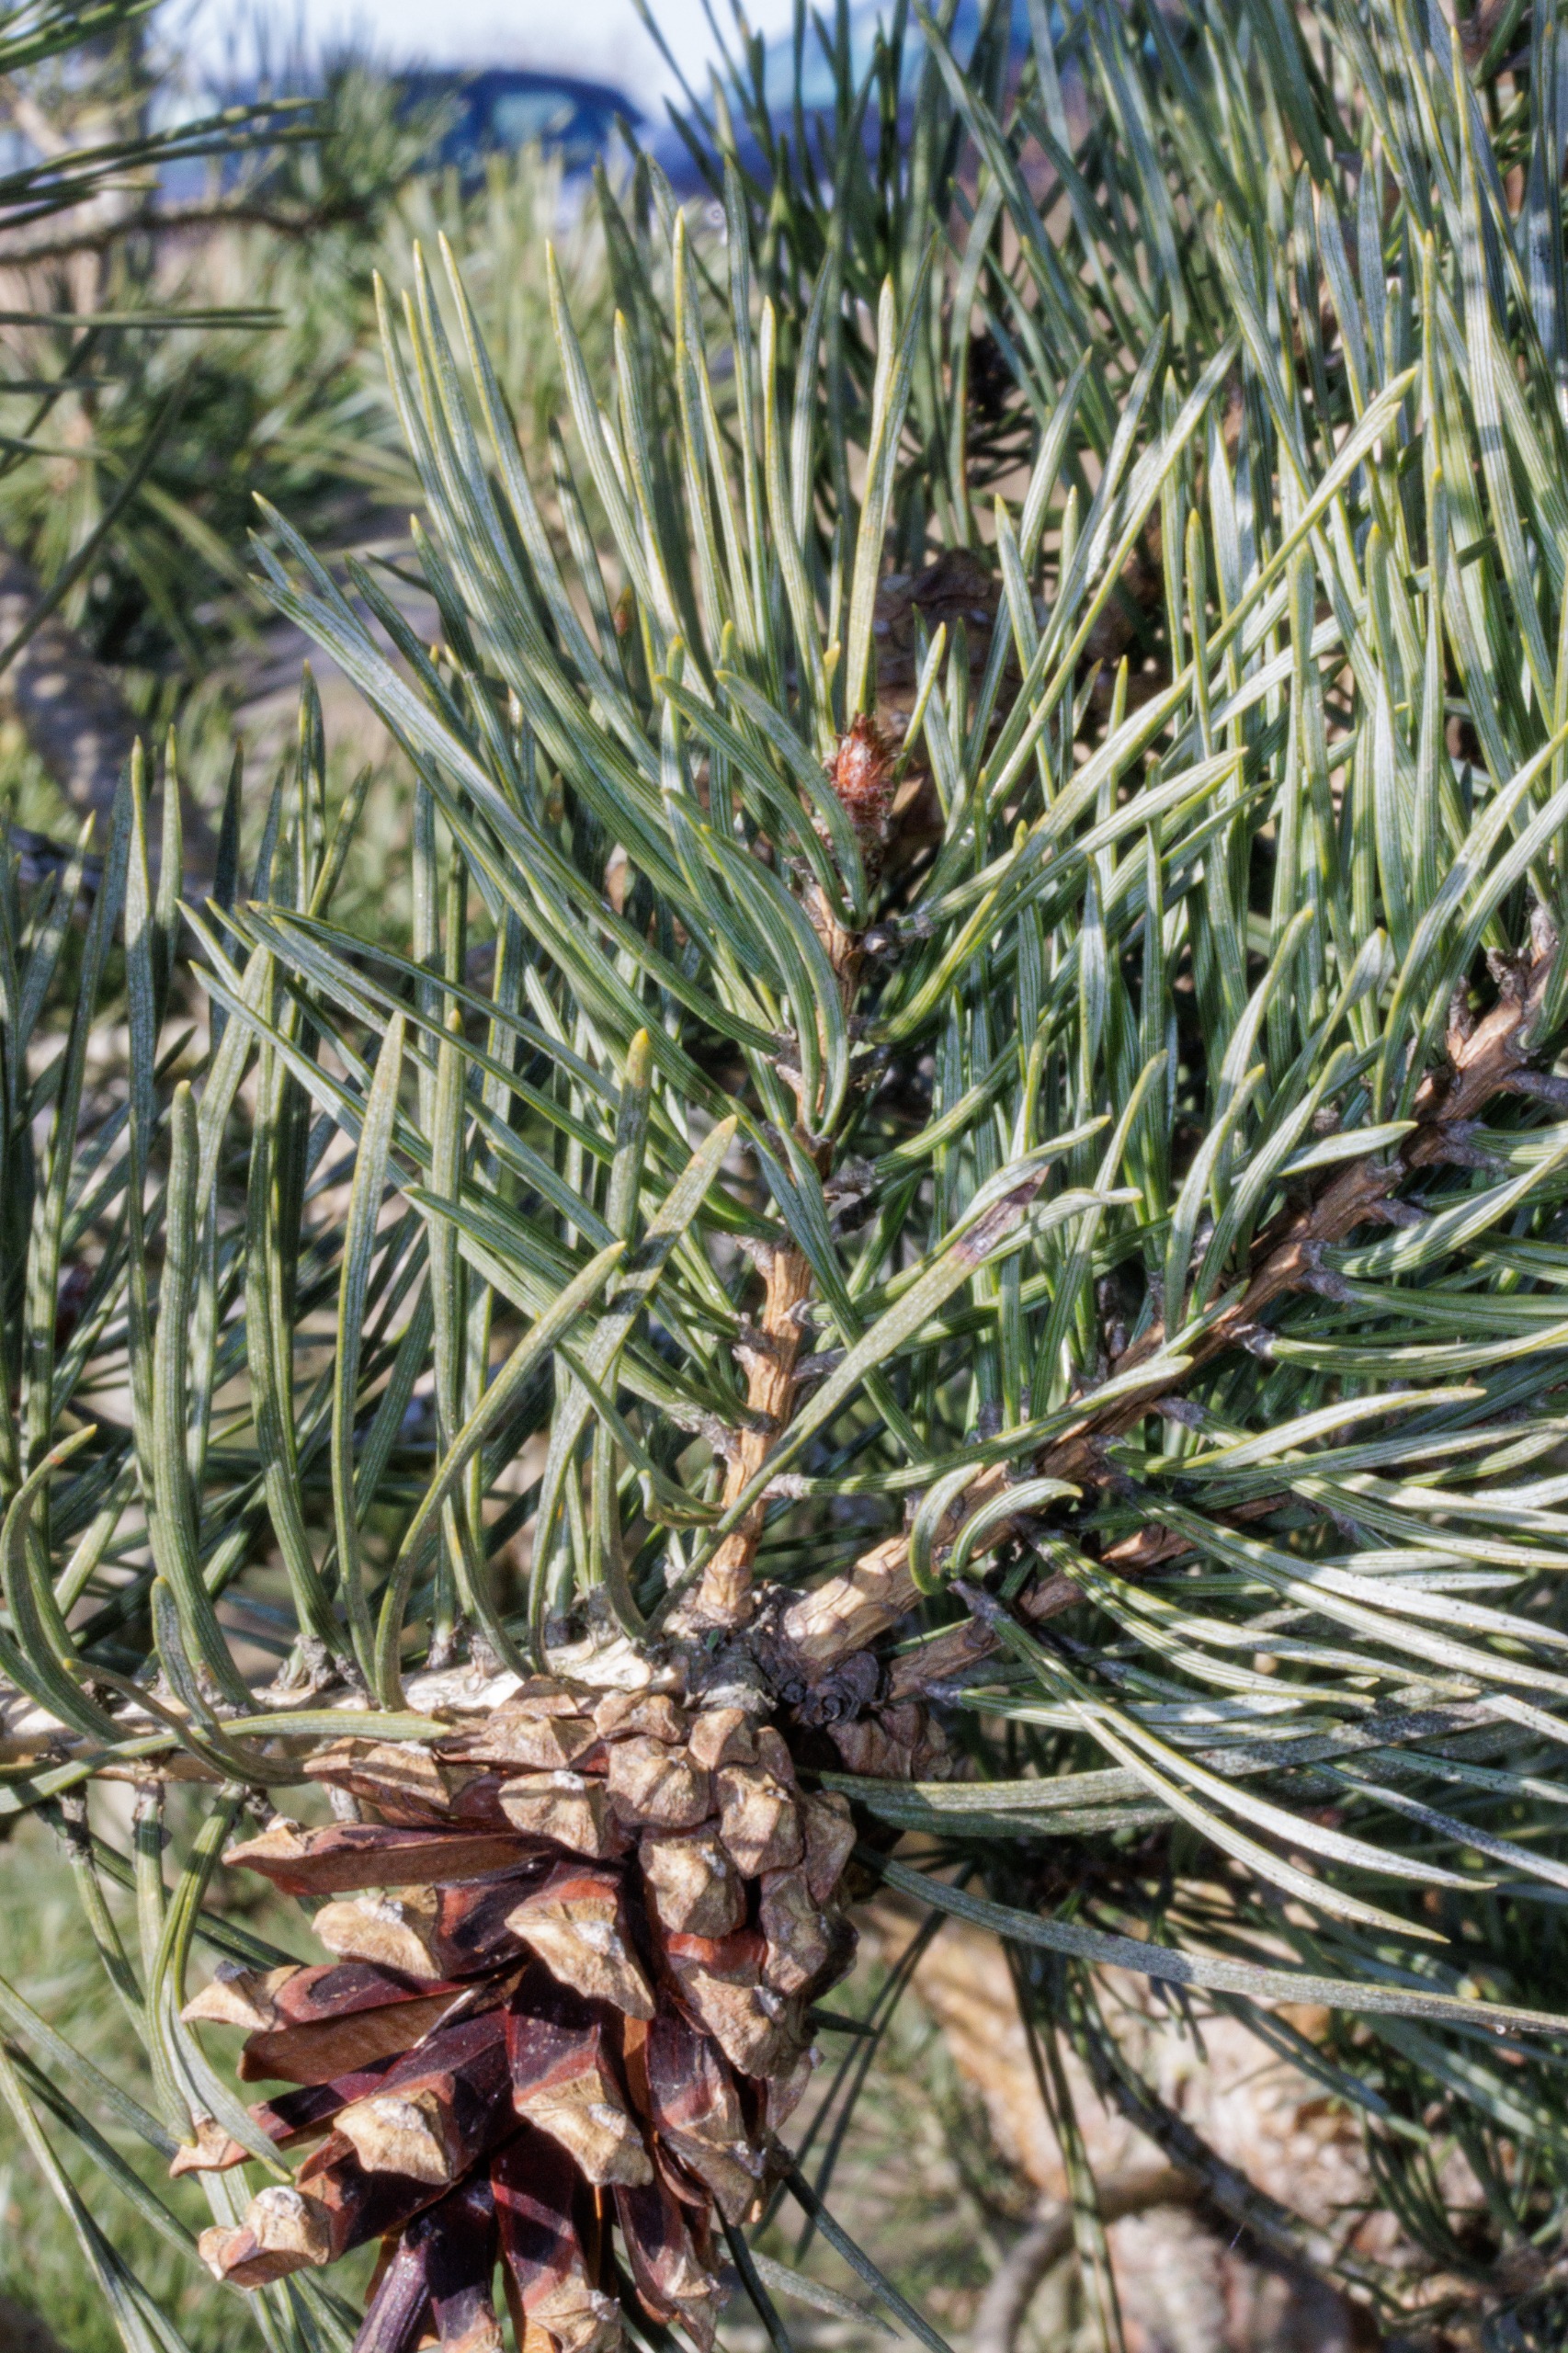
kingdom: Plantae
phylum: Tracheophyta
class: Pinopsida
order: Pinales
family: Pinaceae
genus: Pinus
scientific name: Pinus sylvestris
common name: Skov-fyr
